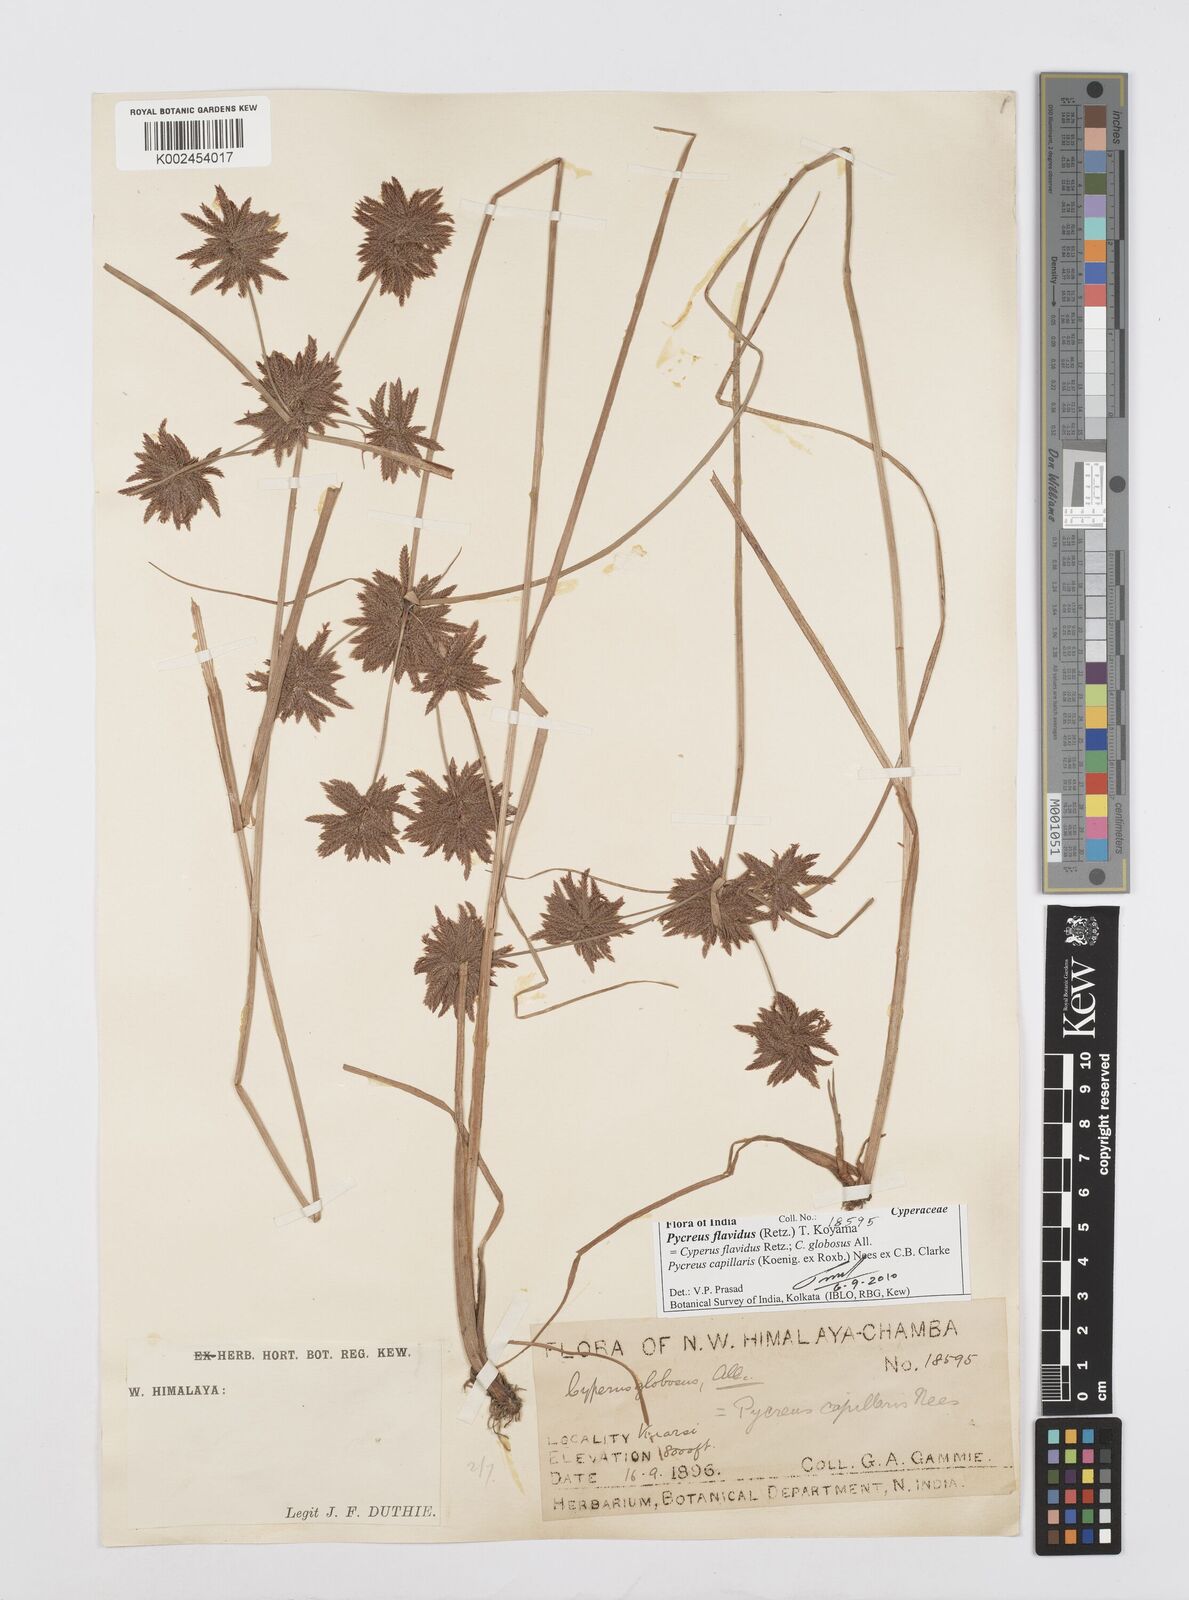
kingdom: Plantae
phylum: Tracheophyta
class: Liliopsida
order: Poales
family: Cyperaceae
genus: Cyperus
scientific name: Cyperus flavidus
